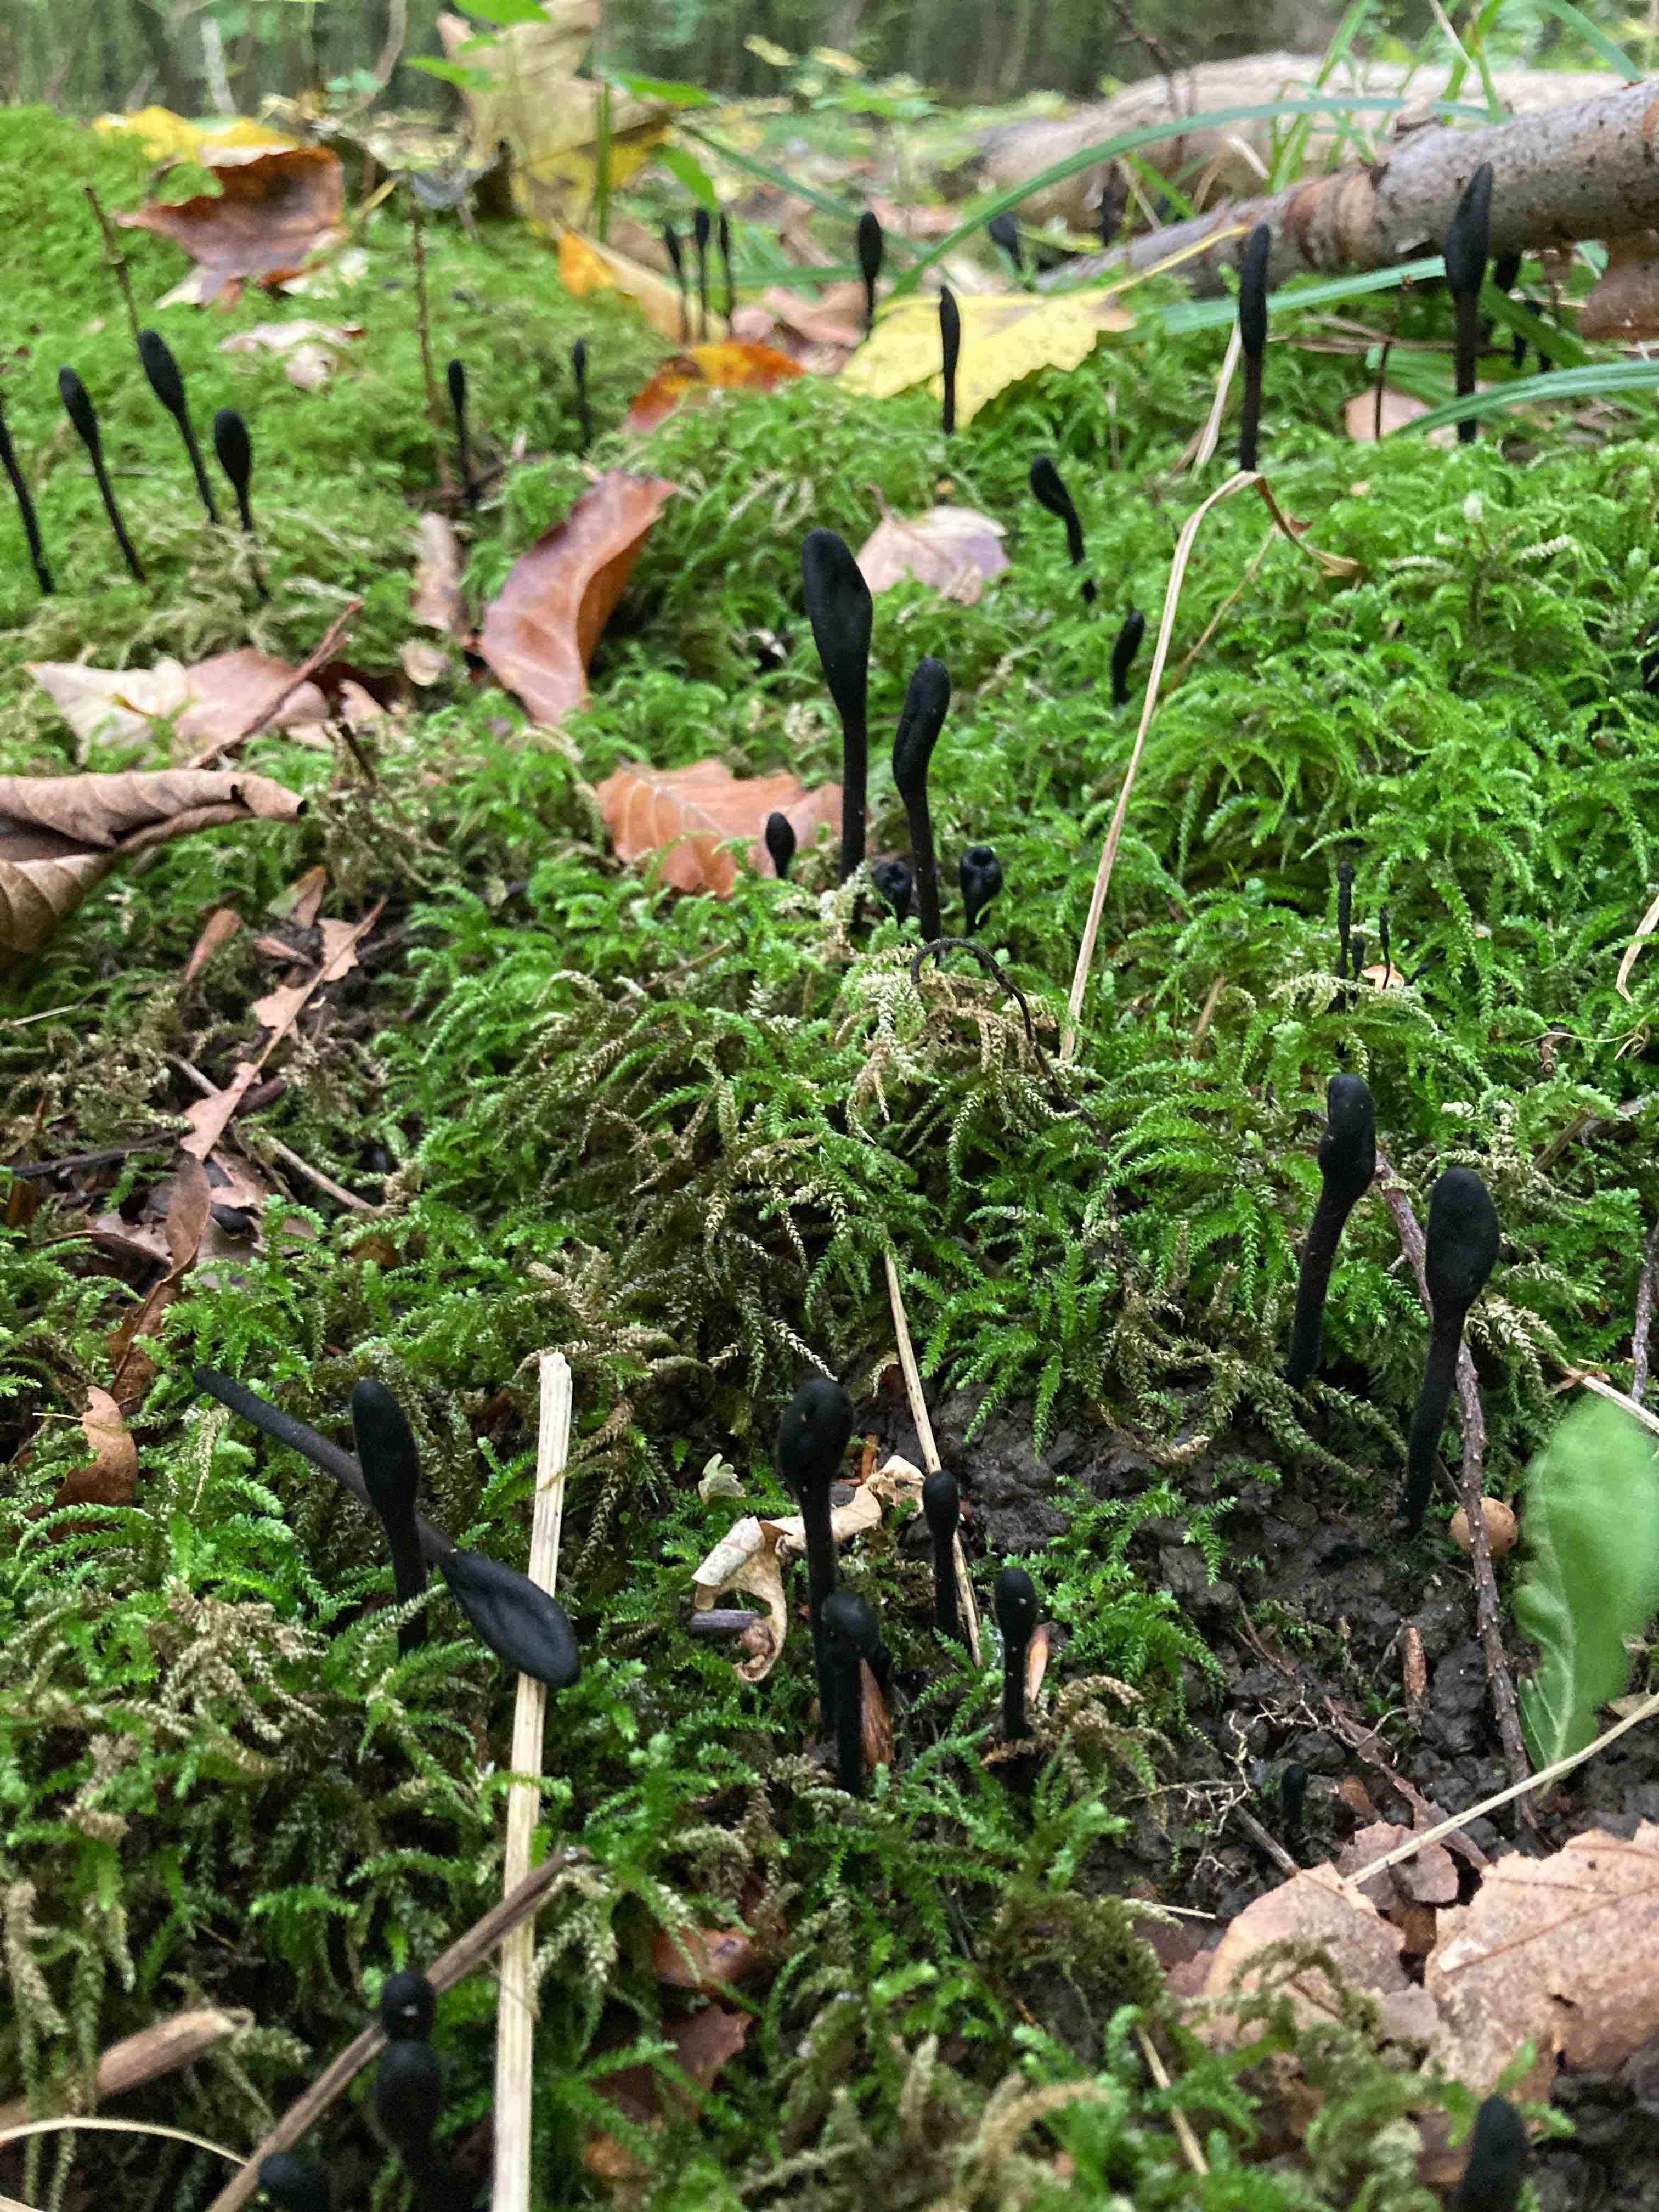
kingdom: Fungi
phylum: Ascomycota
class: Geoglossomycetes
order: Geoglossales
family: Geoglossaceae
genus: Trichoglossum
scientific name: Trichoglossum hirsutum
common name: håret jordtunge
